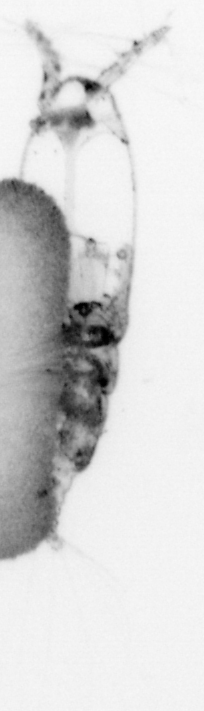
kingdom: Animalia
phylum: Arthropoda
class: Copepoda
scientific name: Copepoda
